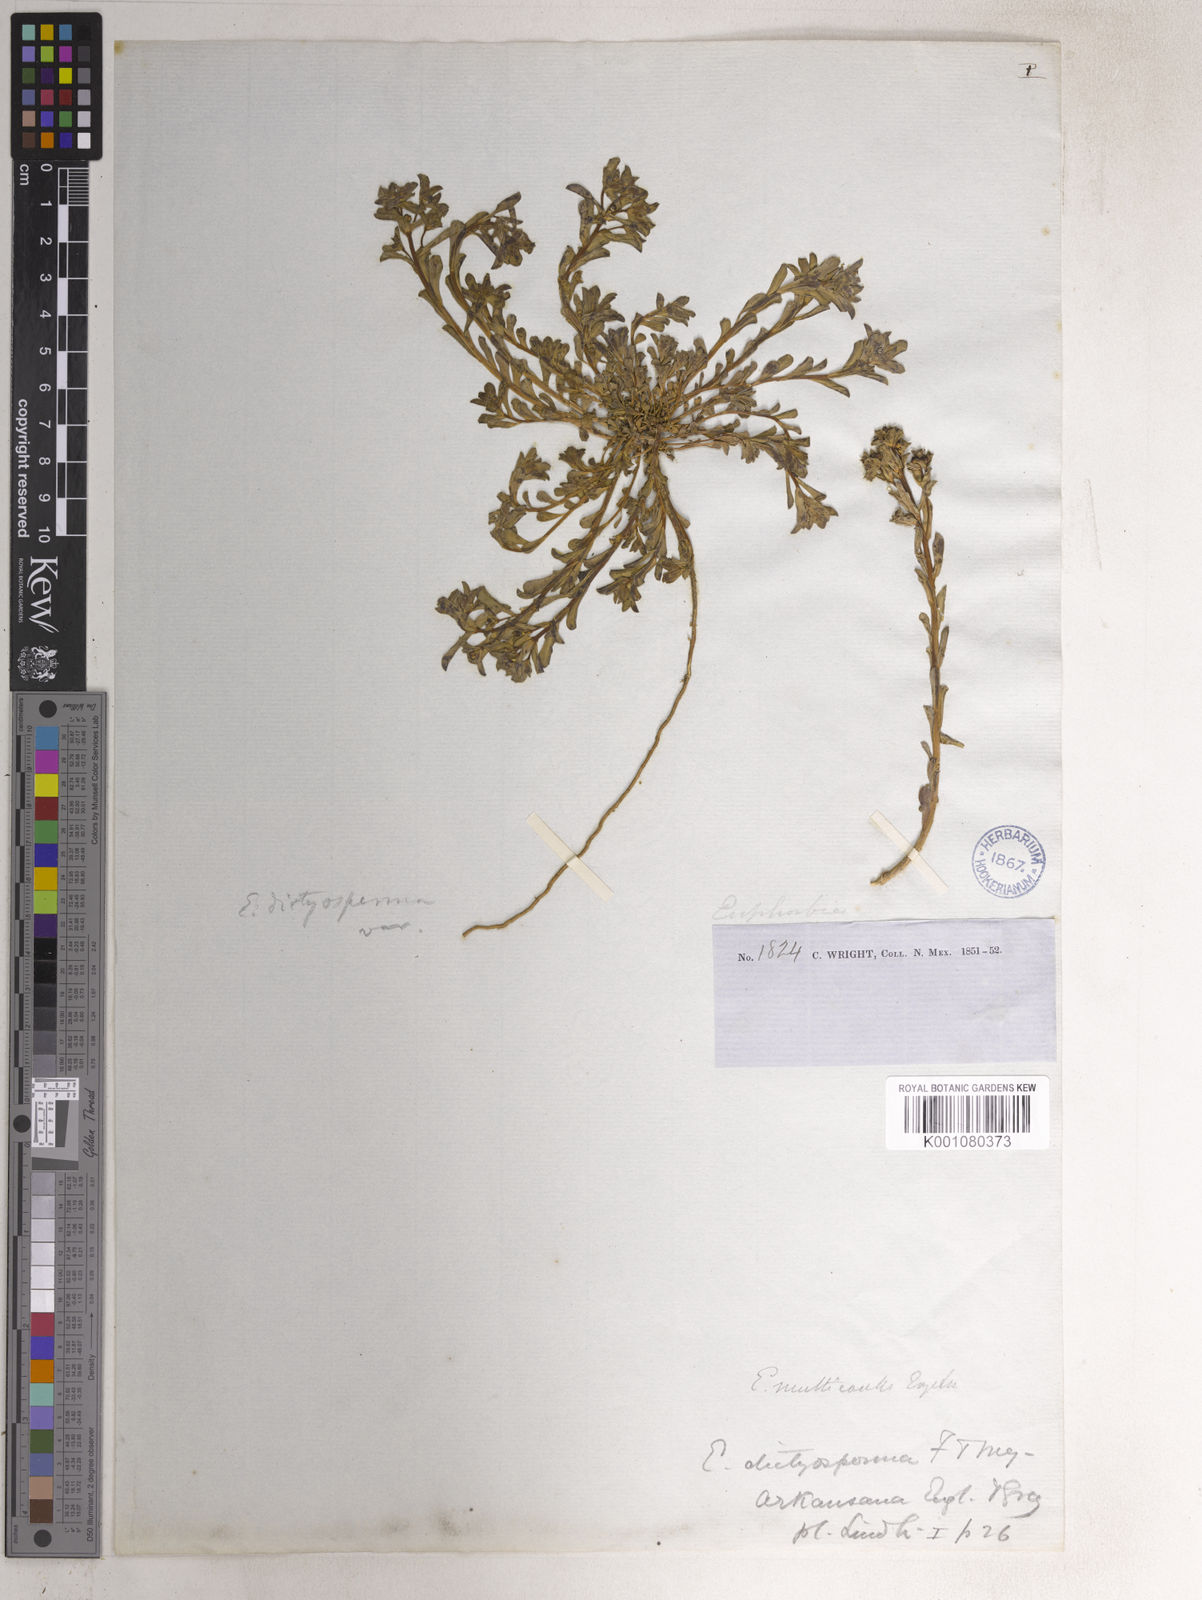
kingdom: Plantae
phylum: Tracheophyta
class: Magnoliopsida
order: Malpighiales
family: Euphorbiaceae
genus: Euphorbia
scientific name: Euphorbia spathulata
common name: Blunt spurge
